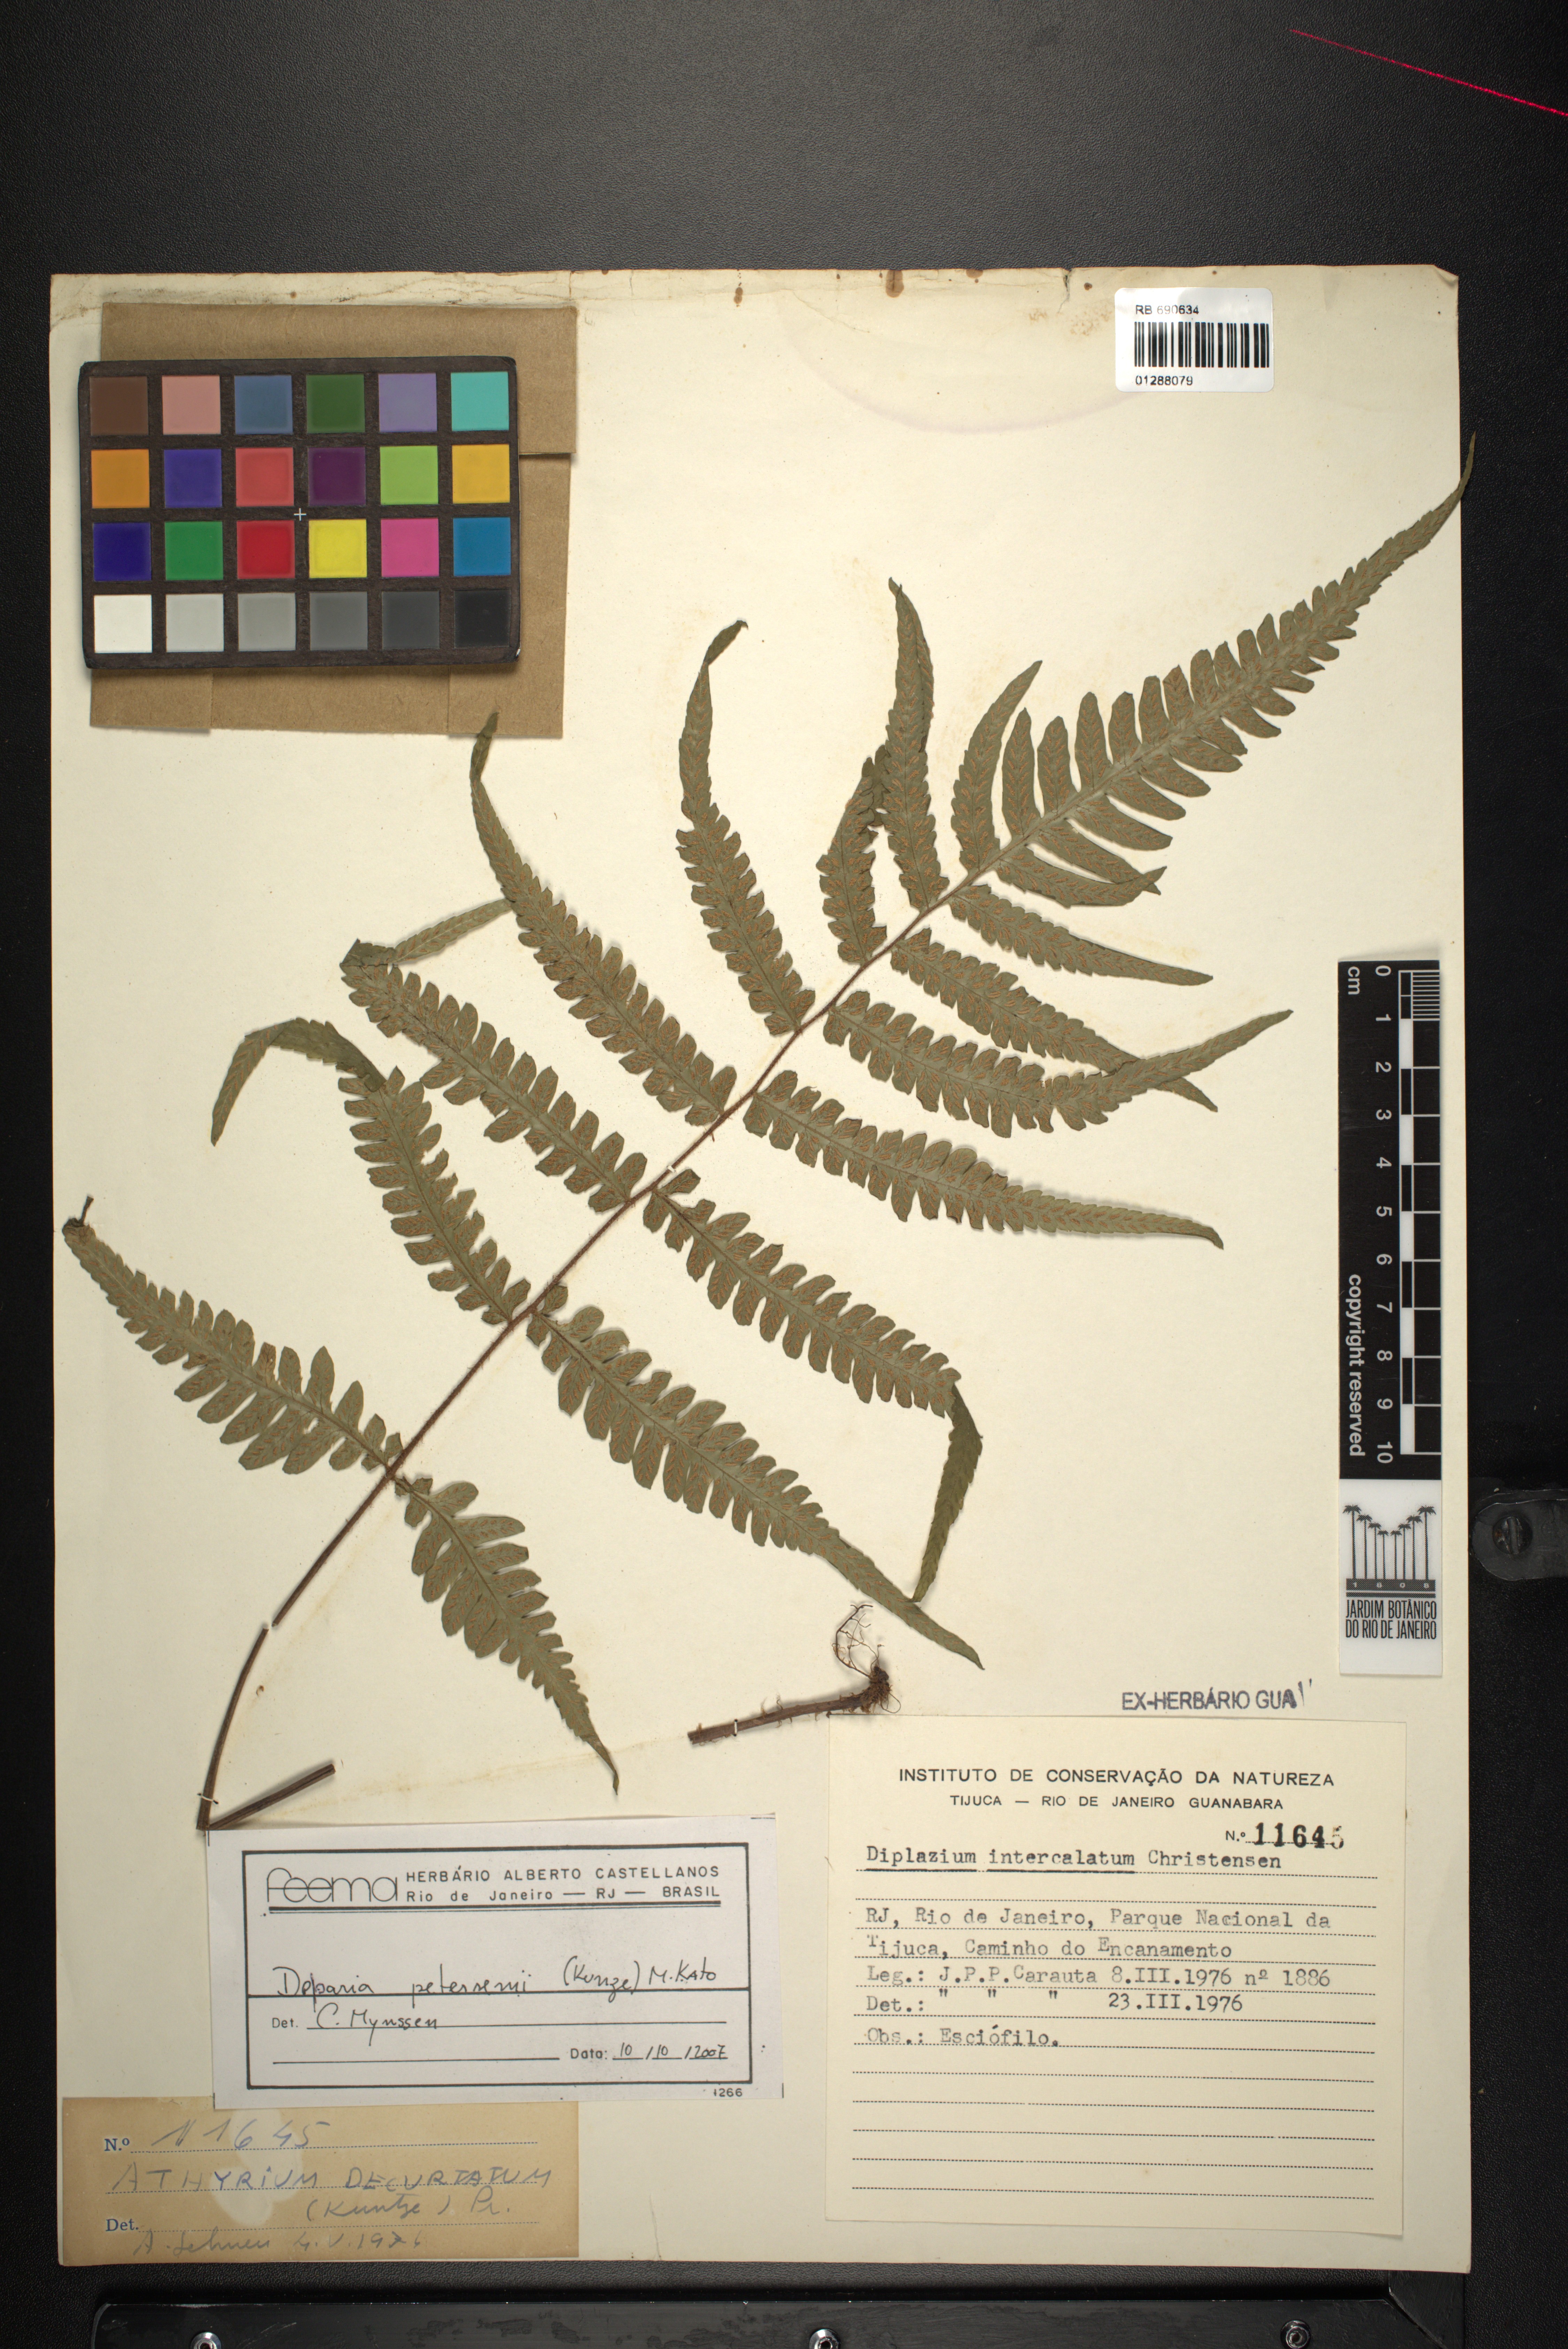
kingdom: Plantae
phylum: Tracheophyta
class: Polypodiopsida
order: Polypodiales
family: Athyriaceae
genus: Deparia
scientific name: Deparia petersenii
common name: Japanese false spleenwort
